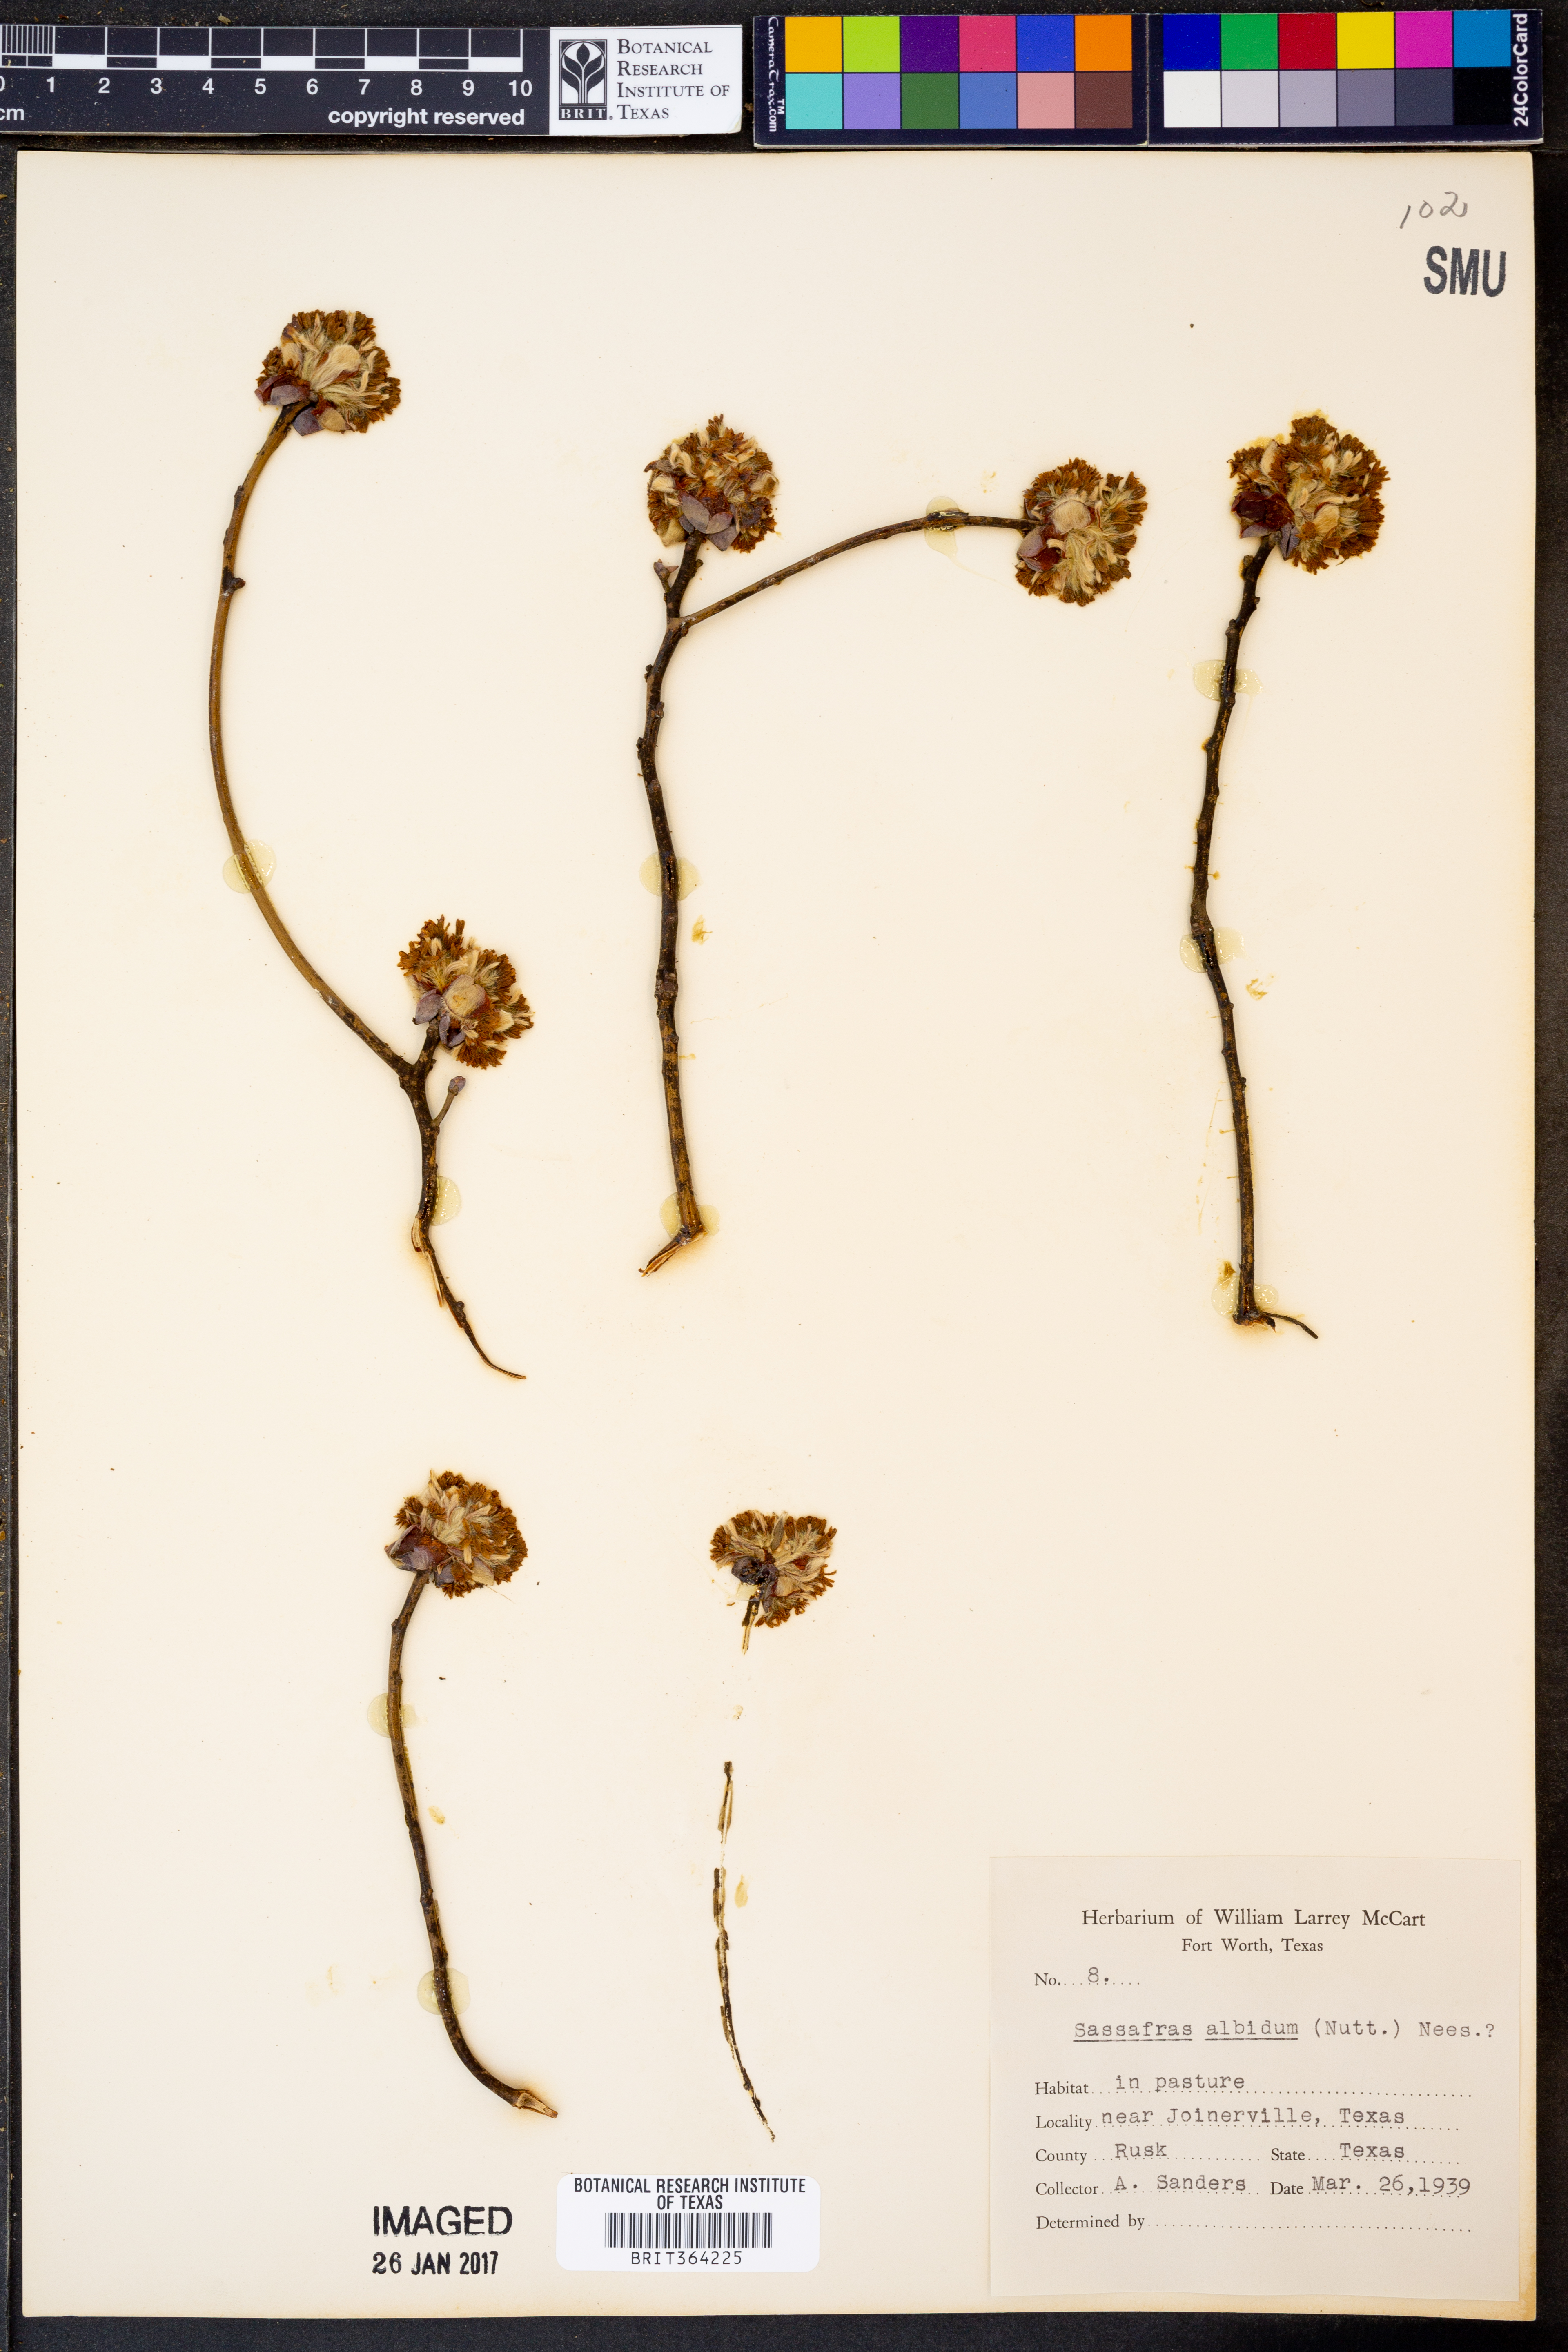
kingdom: Plantae
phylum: Tracheophyta
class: Magnoliopsida
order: Laurales
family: Lauraceae
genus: Sassafras
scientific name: Sassafras albidum
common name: Sassafras
